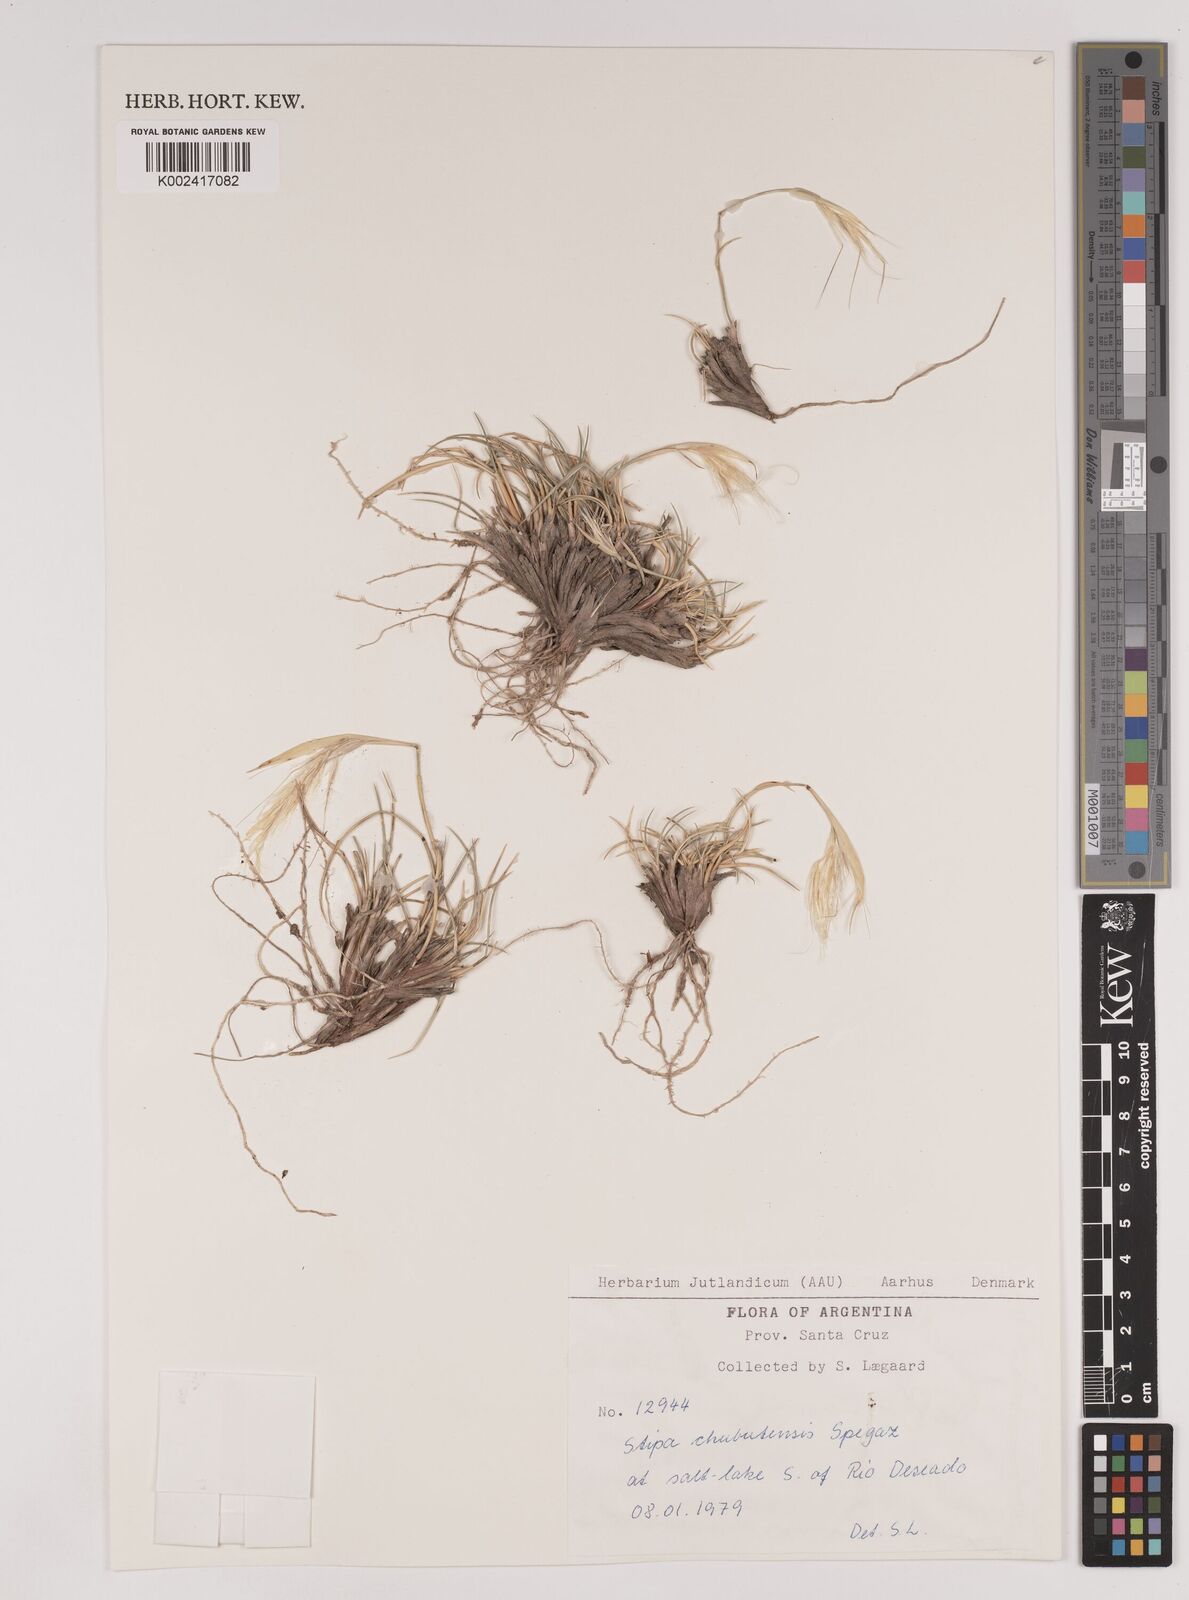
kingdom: Plantae
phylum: Tracheophyta
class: Liliopsida
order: Poales
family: Poaceae
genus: Pappostipa
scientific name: Pappostipa chubutensis
